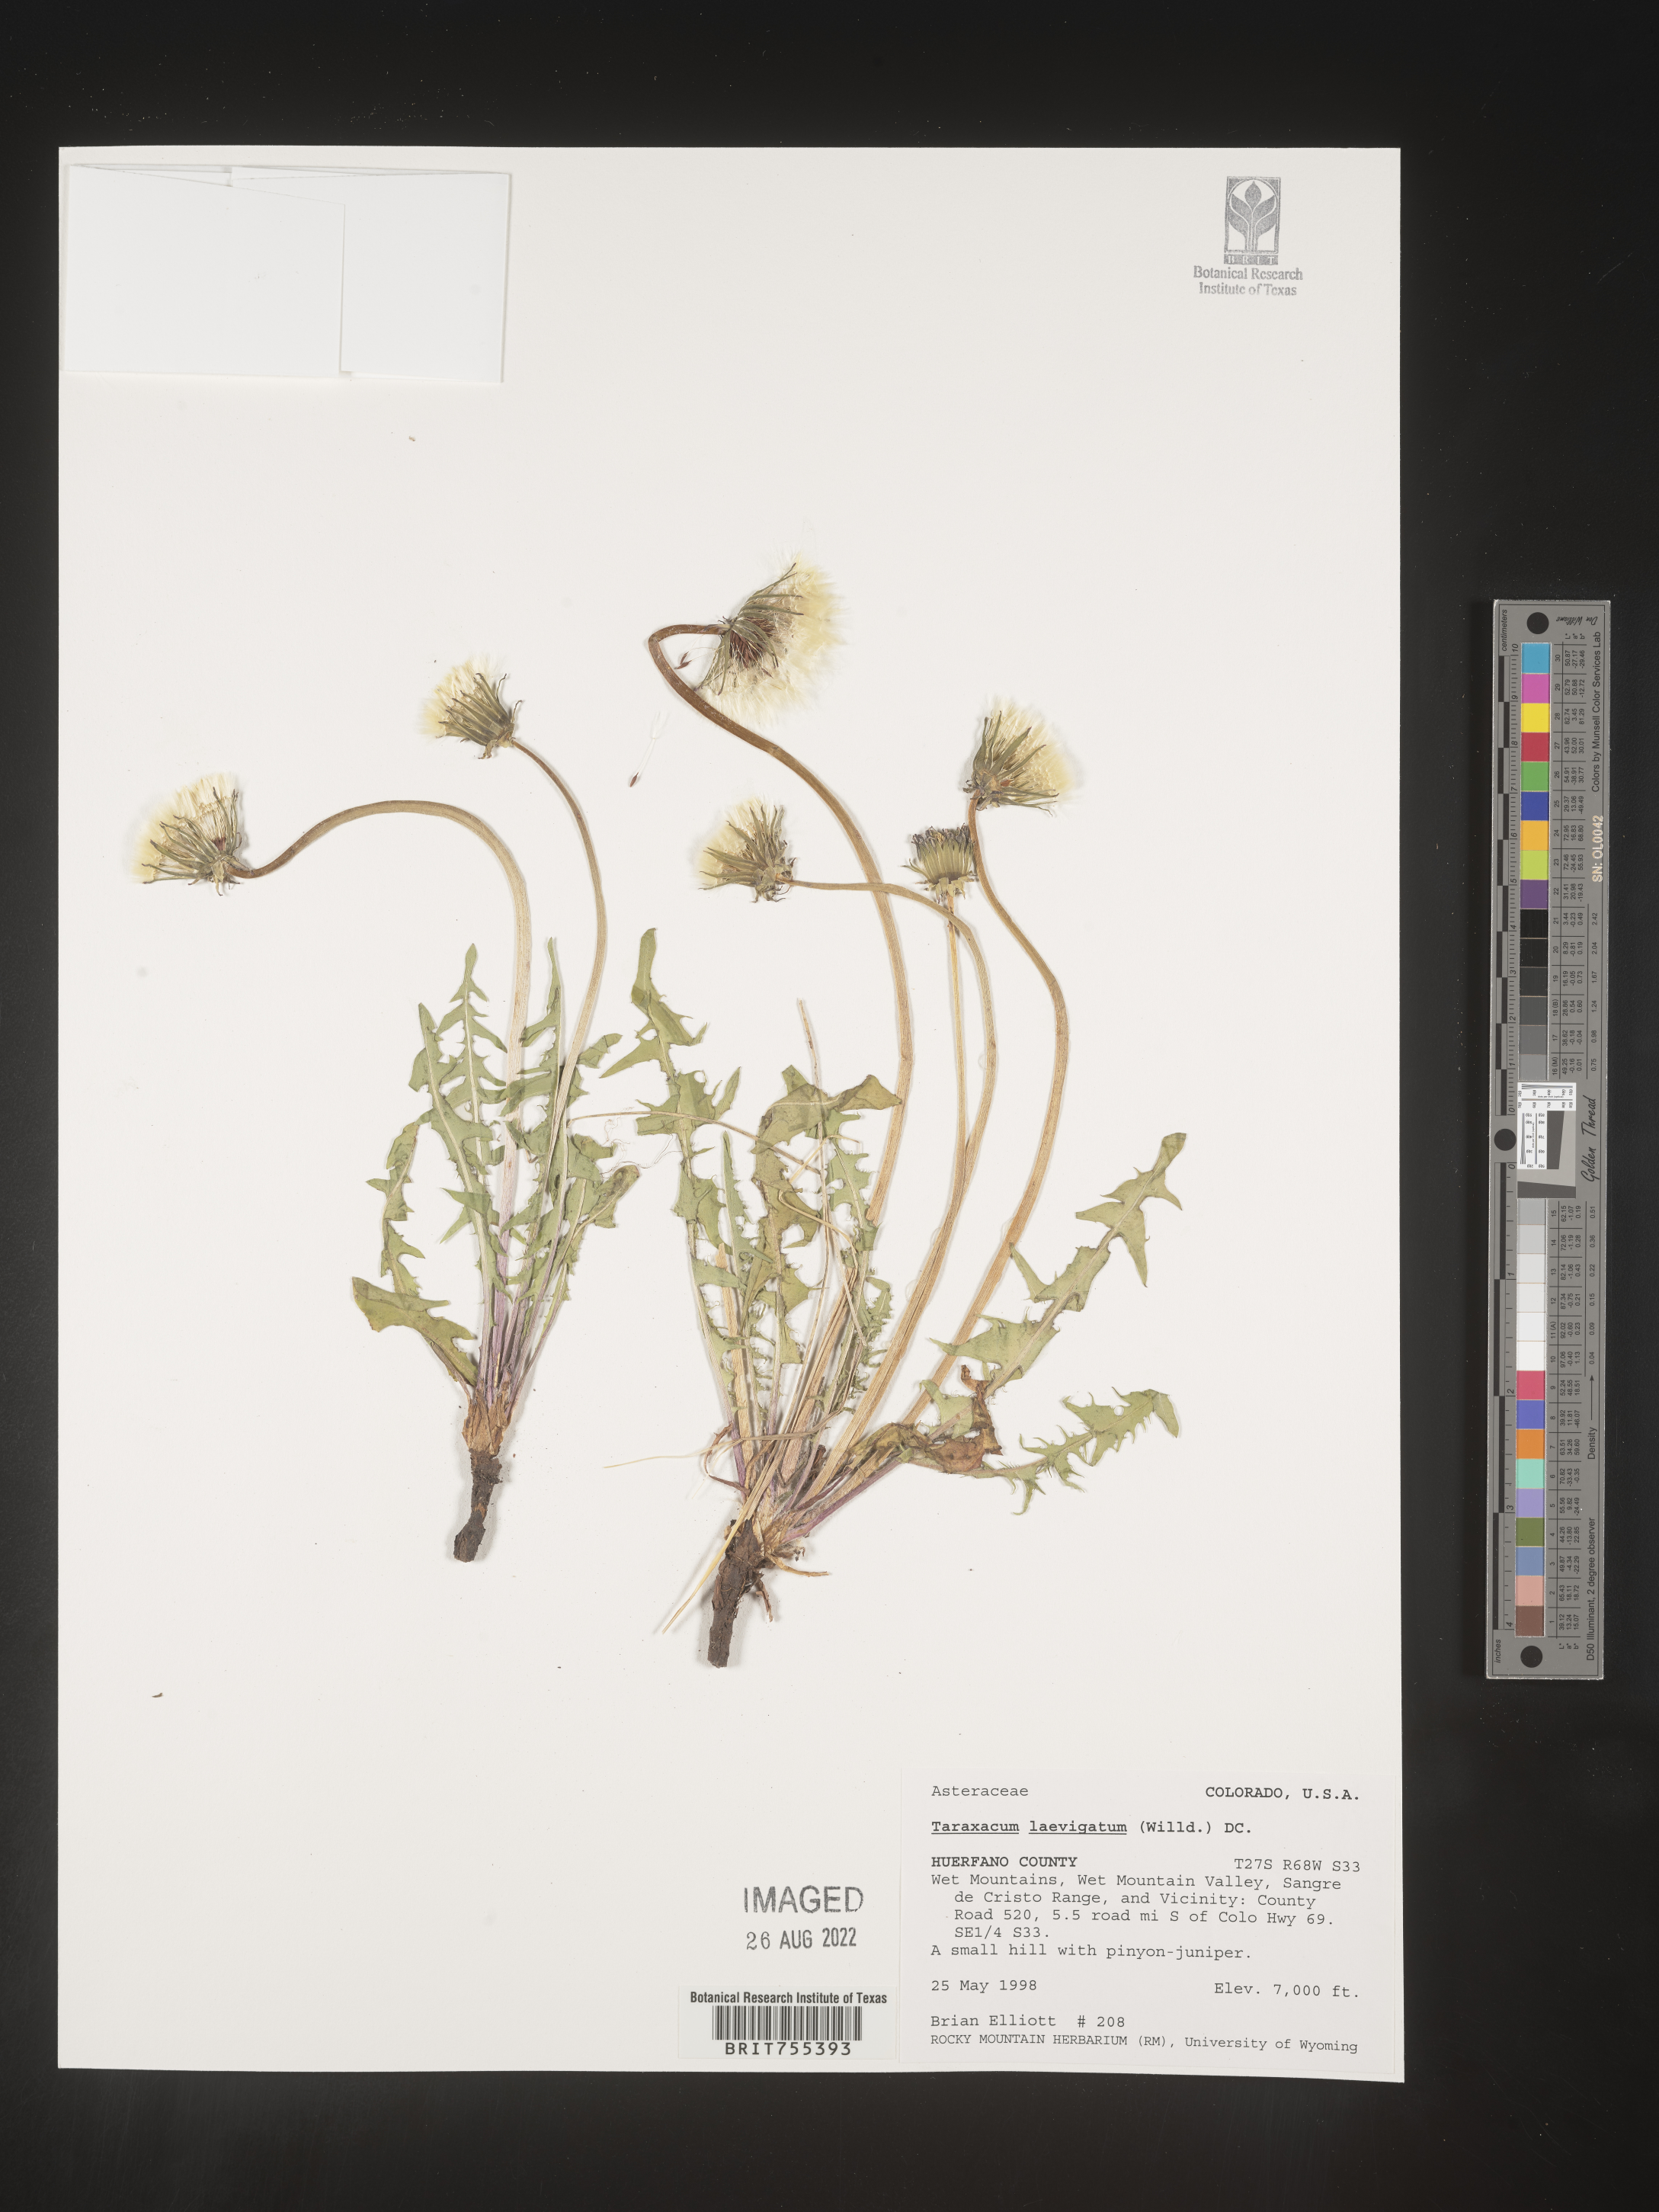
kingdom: Plantae
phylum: Tracheophyta
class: Magnoliopsida
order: Asterales
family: Asteraceae
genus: Taraxacum
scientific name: Taraxacum erythrospermum
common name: Rock dandelion
